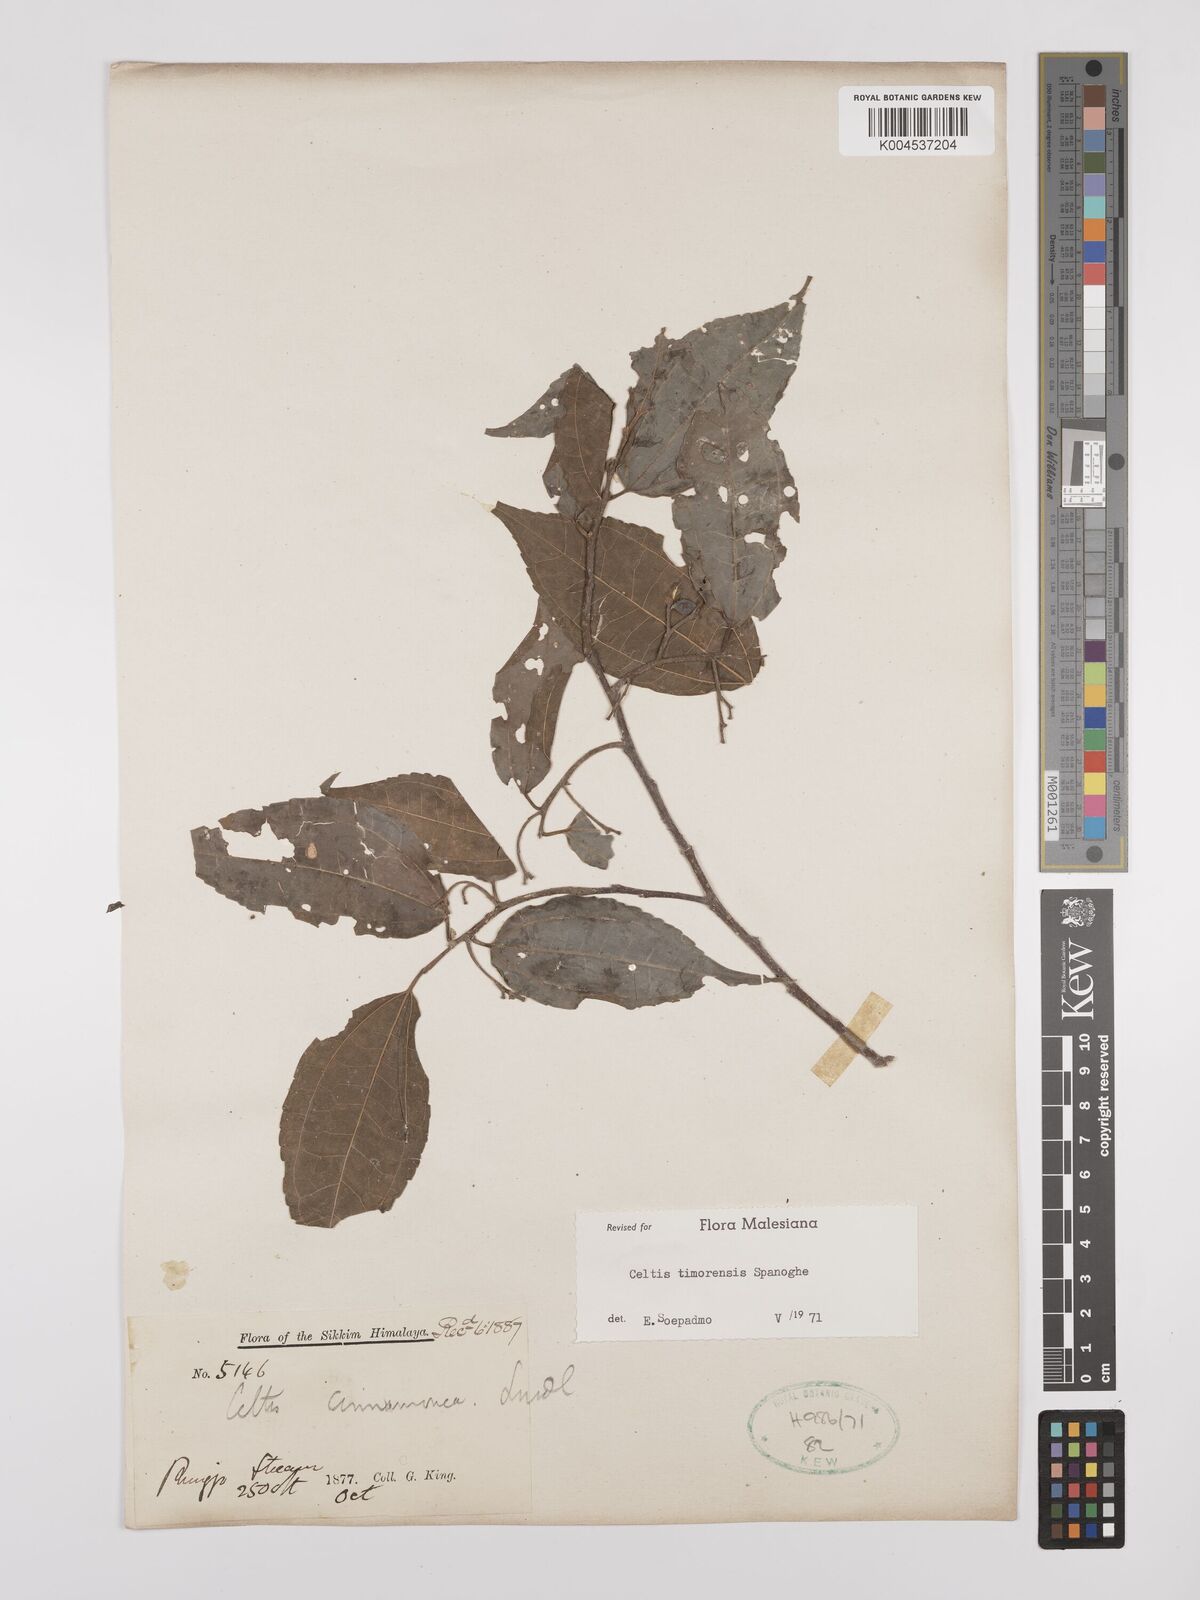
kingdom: Plantae
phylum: Tracheophyta
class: Magnoliopsida
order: Rosales
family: Cannabaceae
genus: Celtis
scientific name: Celtis timorensis
